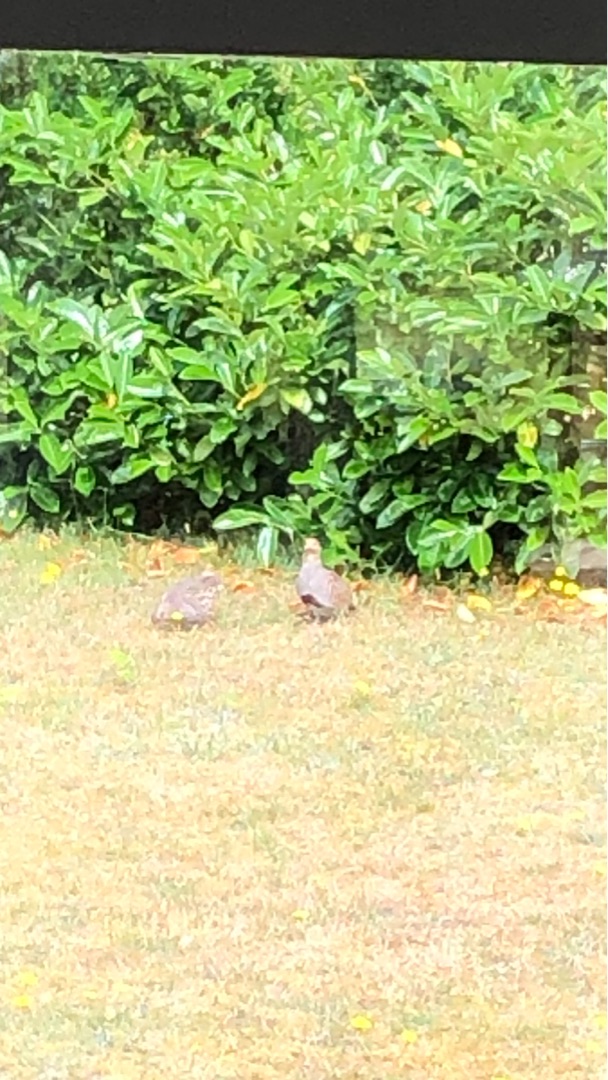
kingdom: Animalia
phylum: Chordata
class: Aves
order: Galliformes
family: Phasianidae
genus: Perdix
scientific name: Perdix perdix
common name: Agerhøne
